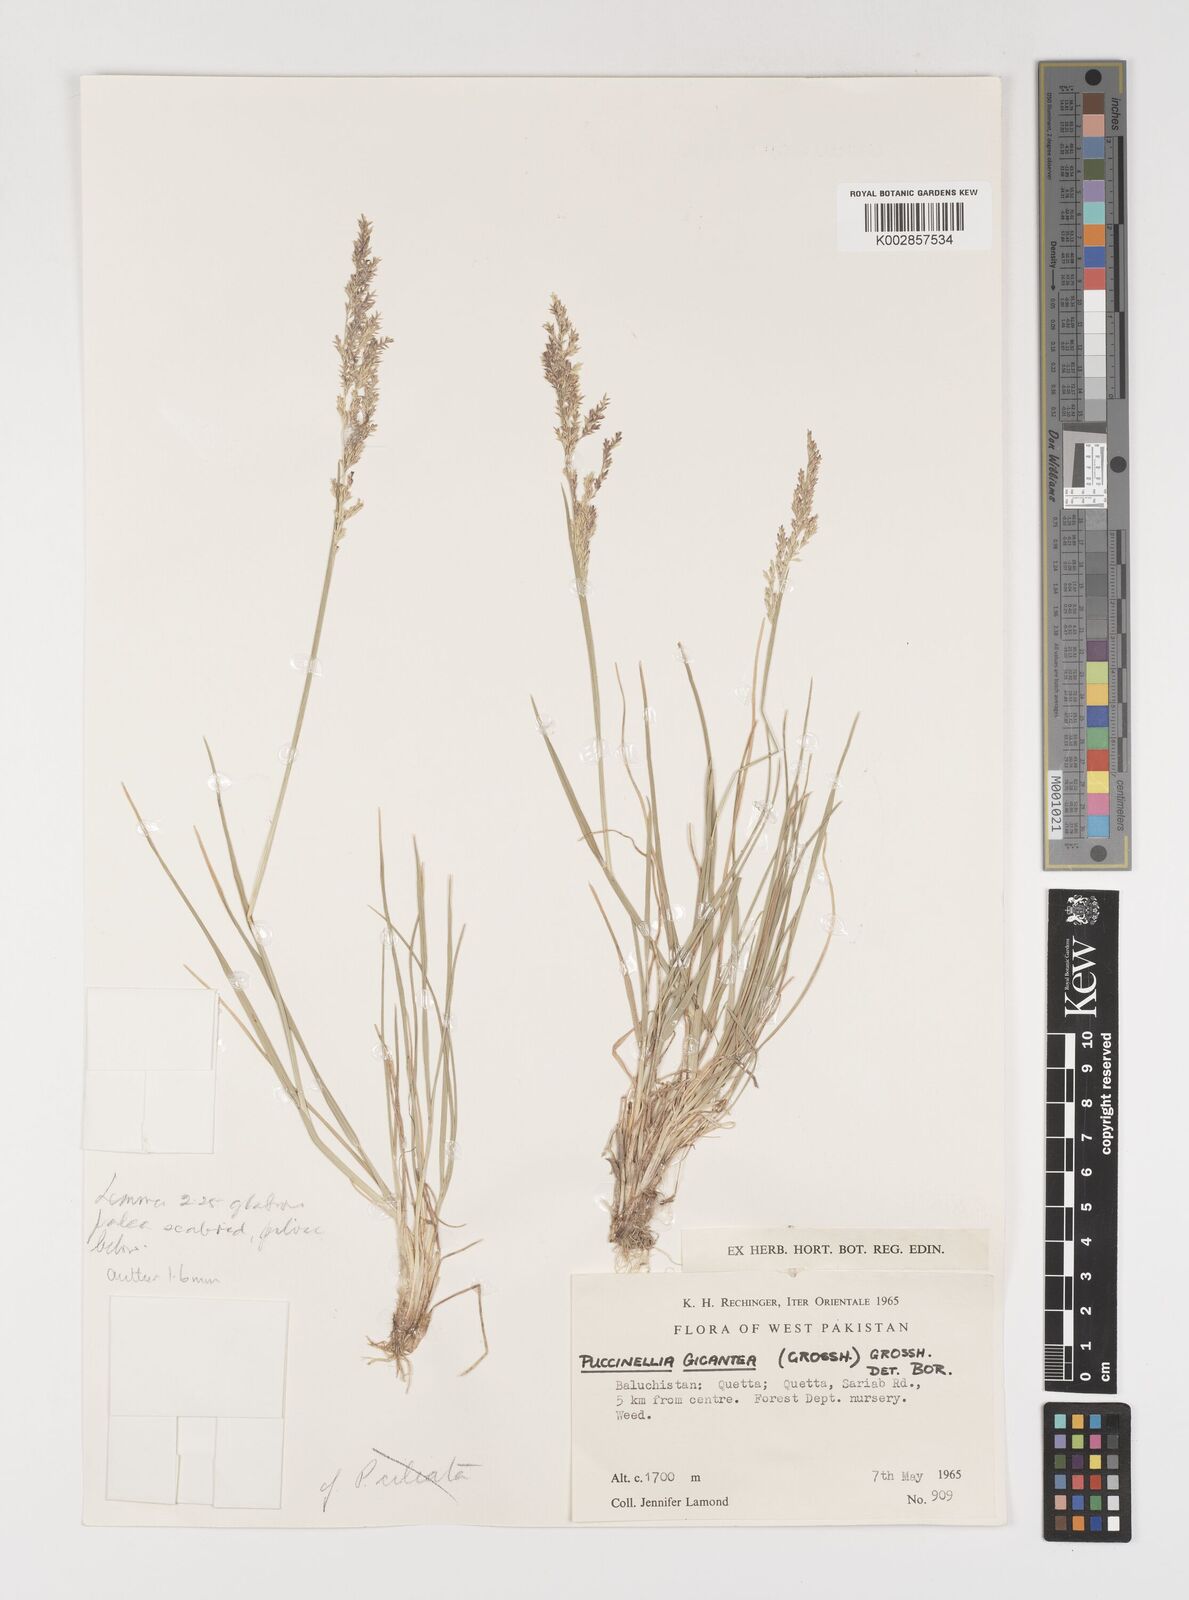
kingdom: Plantae
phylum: Tracheophyta
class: Liliopsida
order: Poales
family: Poaceae
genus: Puccinellia
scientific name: Puccinellia gigantea
